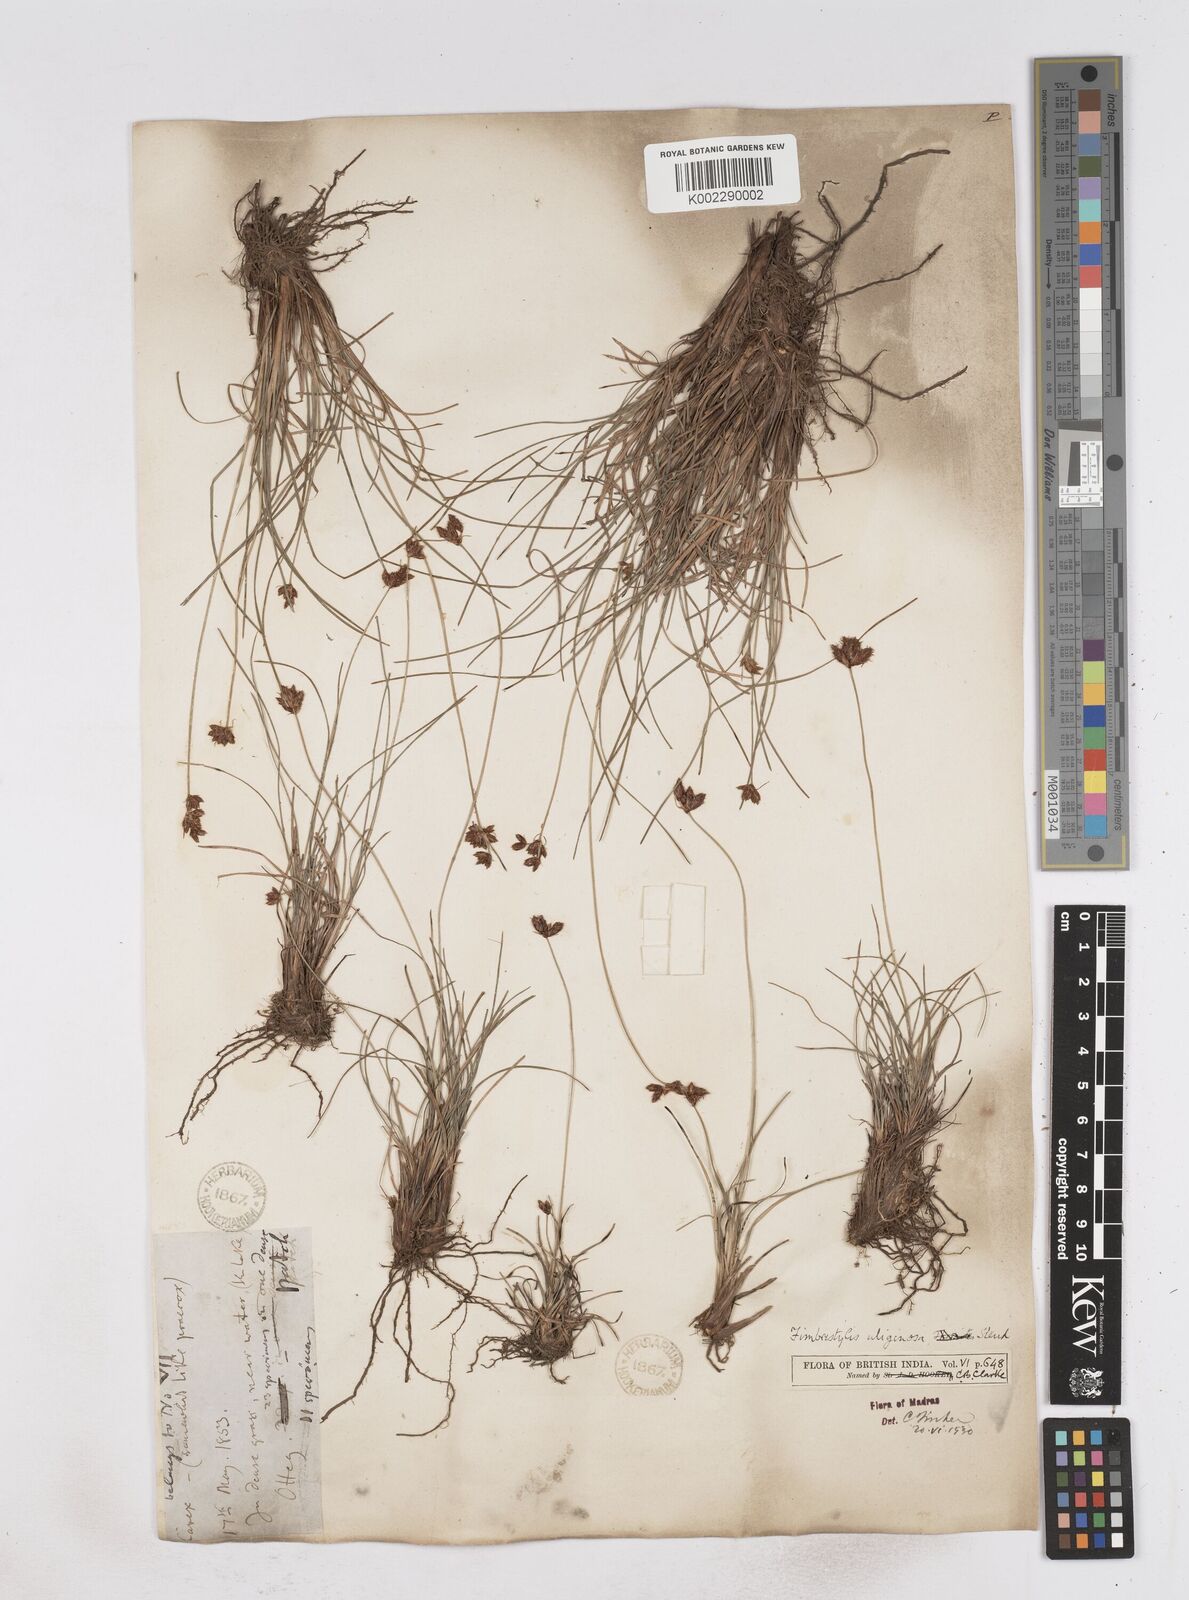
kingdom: Plantae
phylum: Tracheophyta
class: Liliopsida
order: Poales
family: Cyperaceae
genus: Fimbristylis
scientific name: Fimbristylis uliginosa
